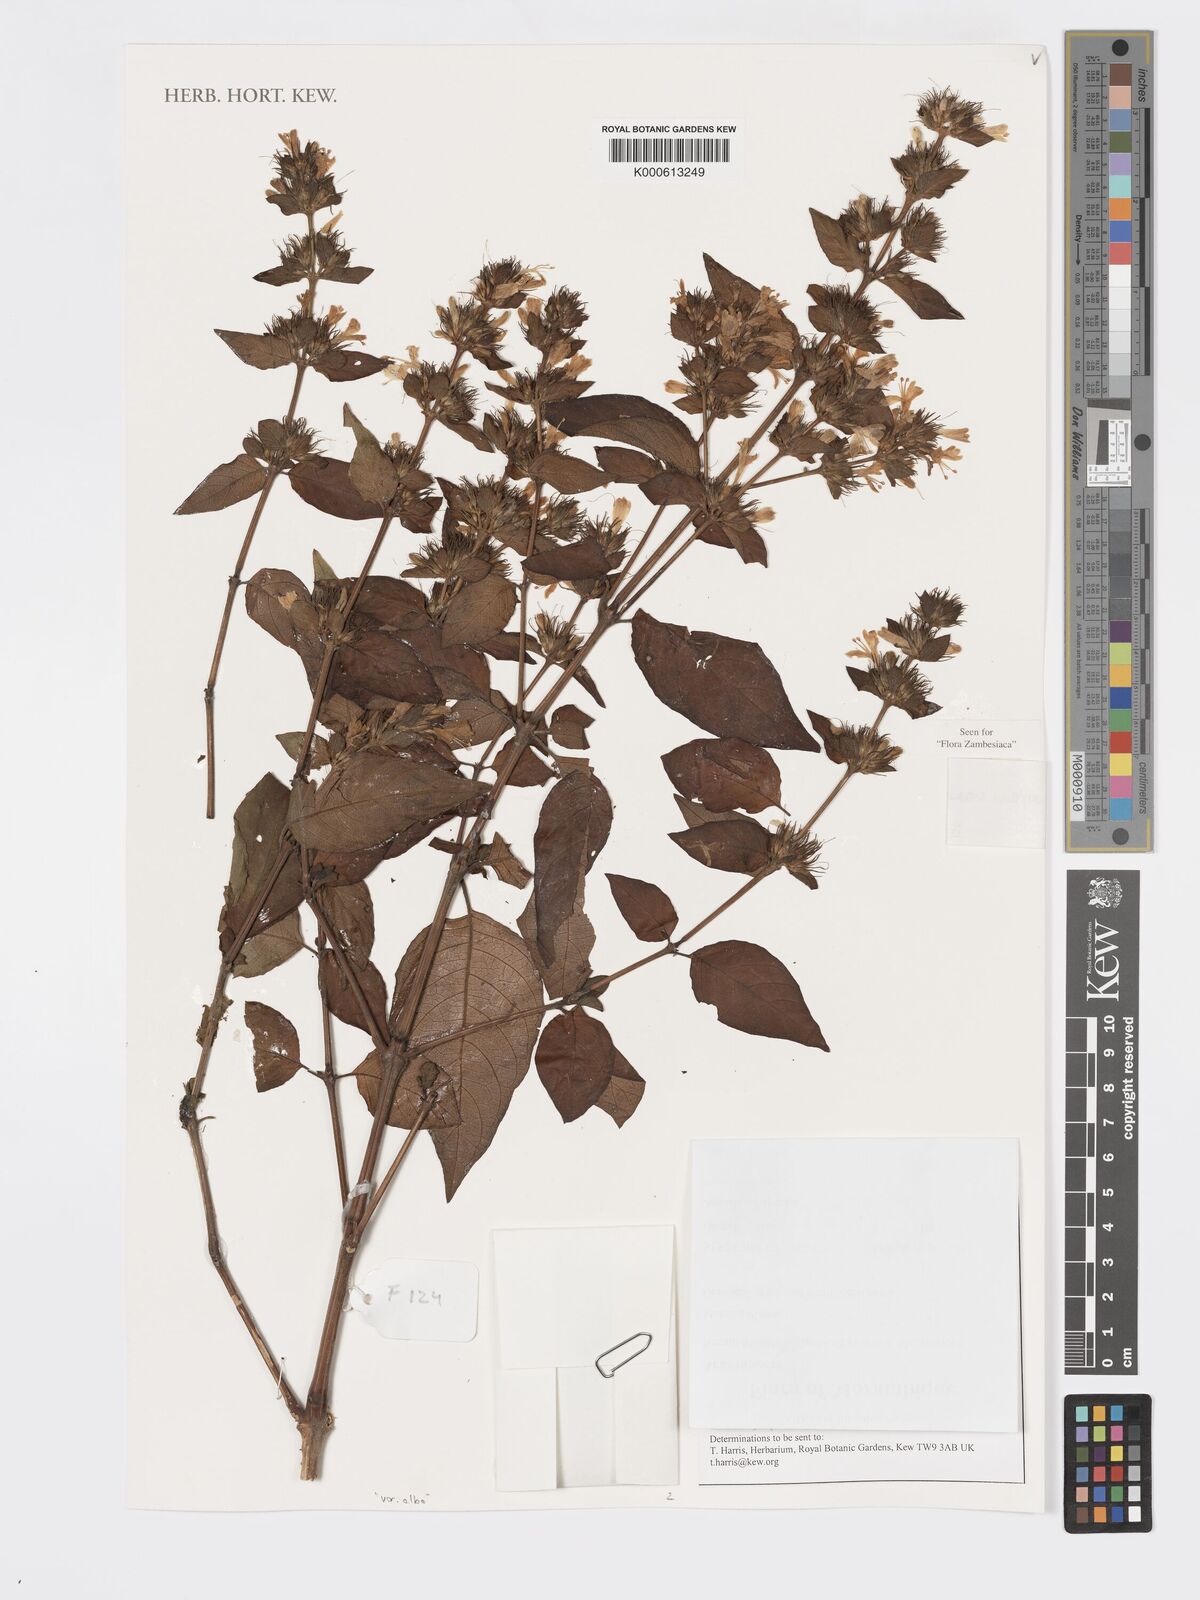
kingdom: Plantae
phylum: Tracheophyta
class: Magnoliopsida
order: Lamiales
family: Acanthaceae
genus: Hypoestes
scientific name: Hypoestes aristata
